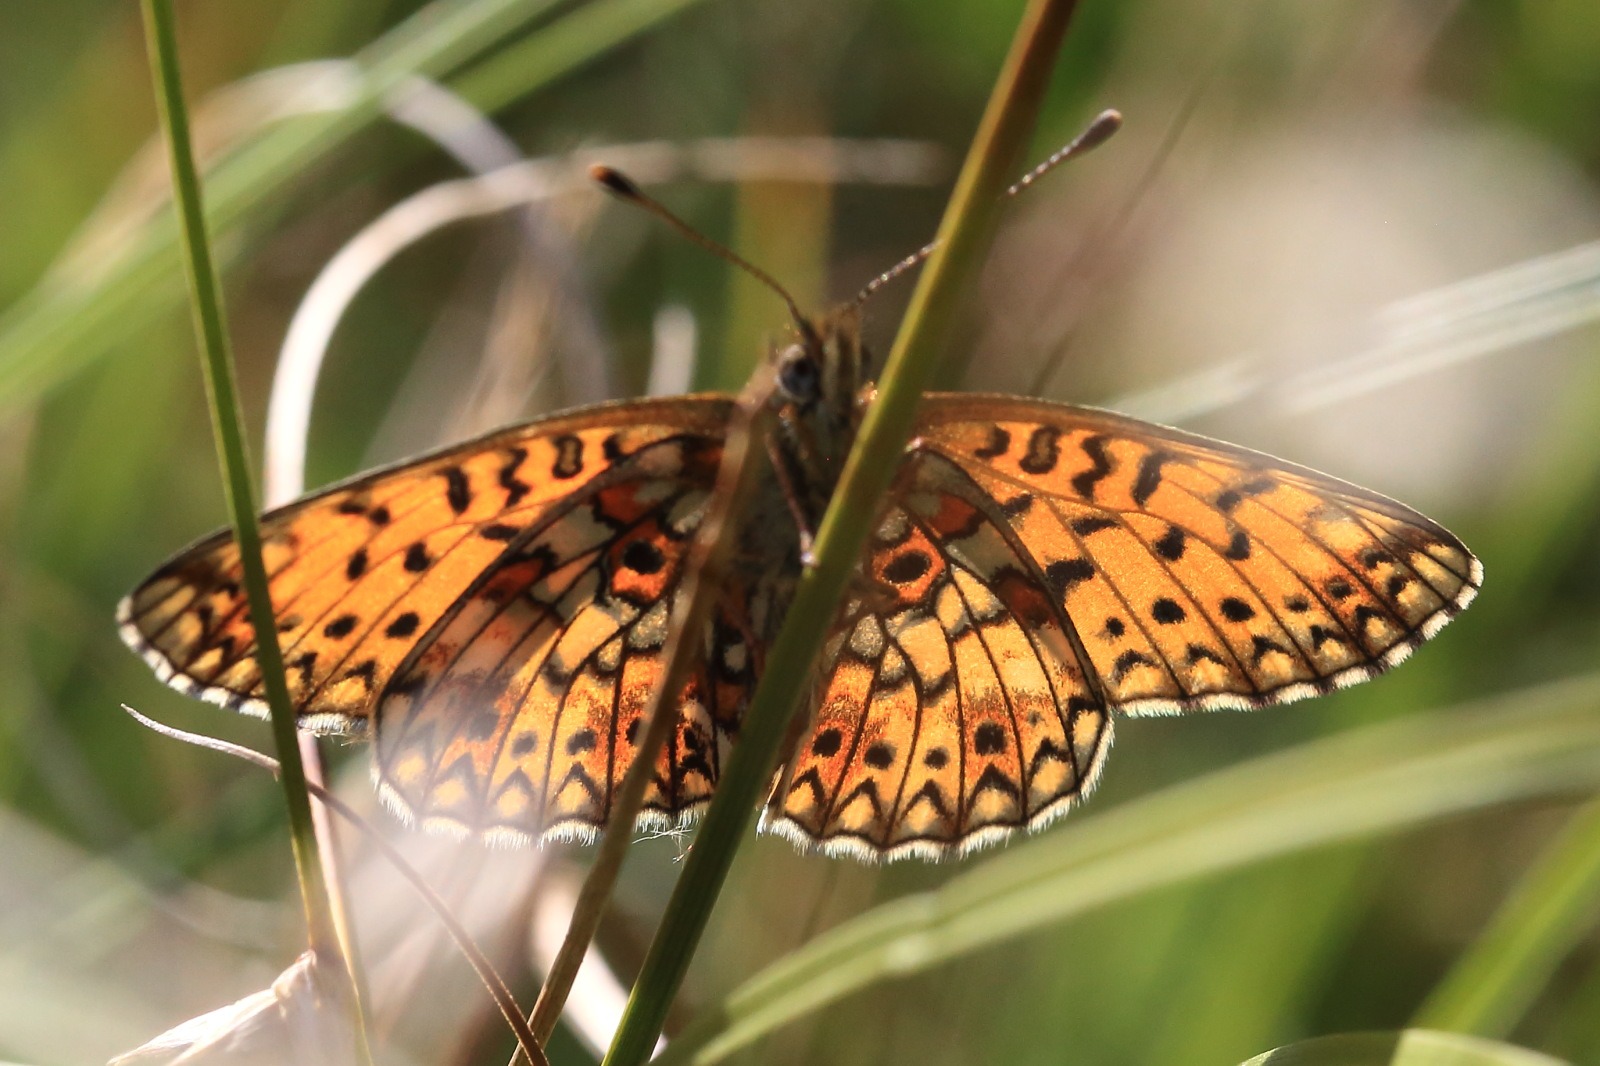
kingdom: Animalia
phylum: Arthropoda
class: Insecta
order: Lepidoptera
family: Nymphalidae
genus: Boloria
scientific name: Boloria selene
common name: Brunlig perlemorsommerfugl
